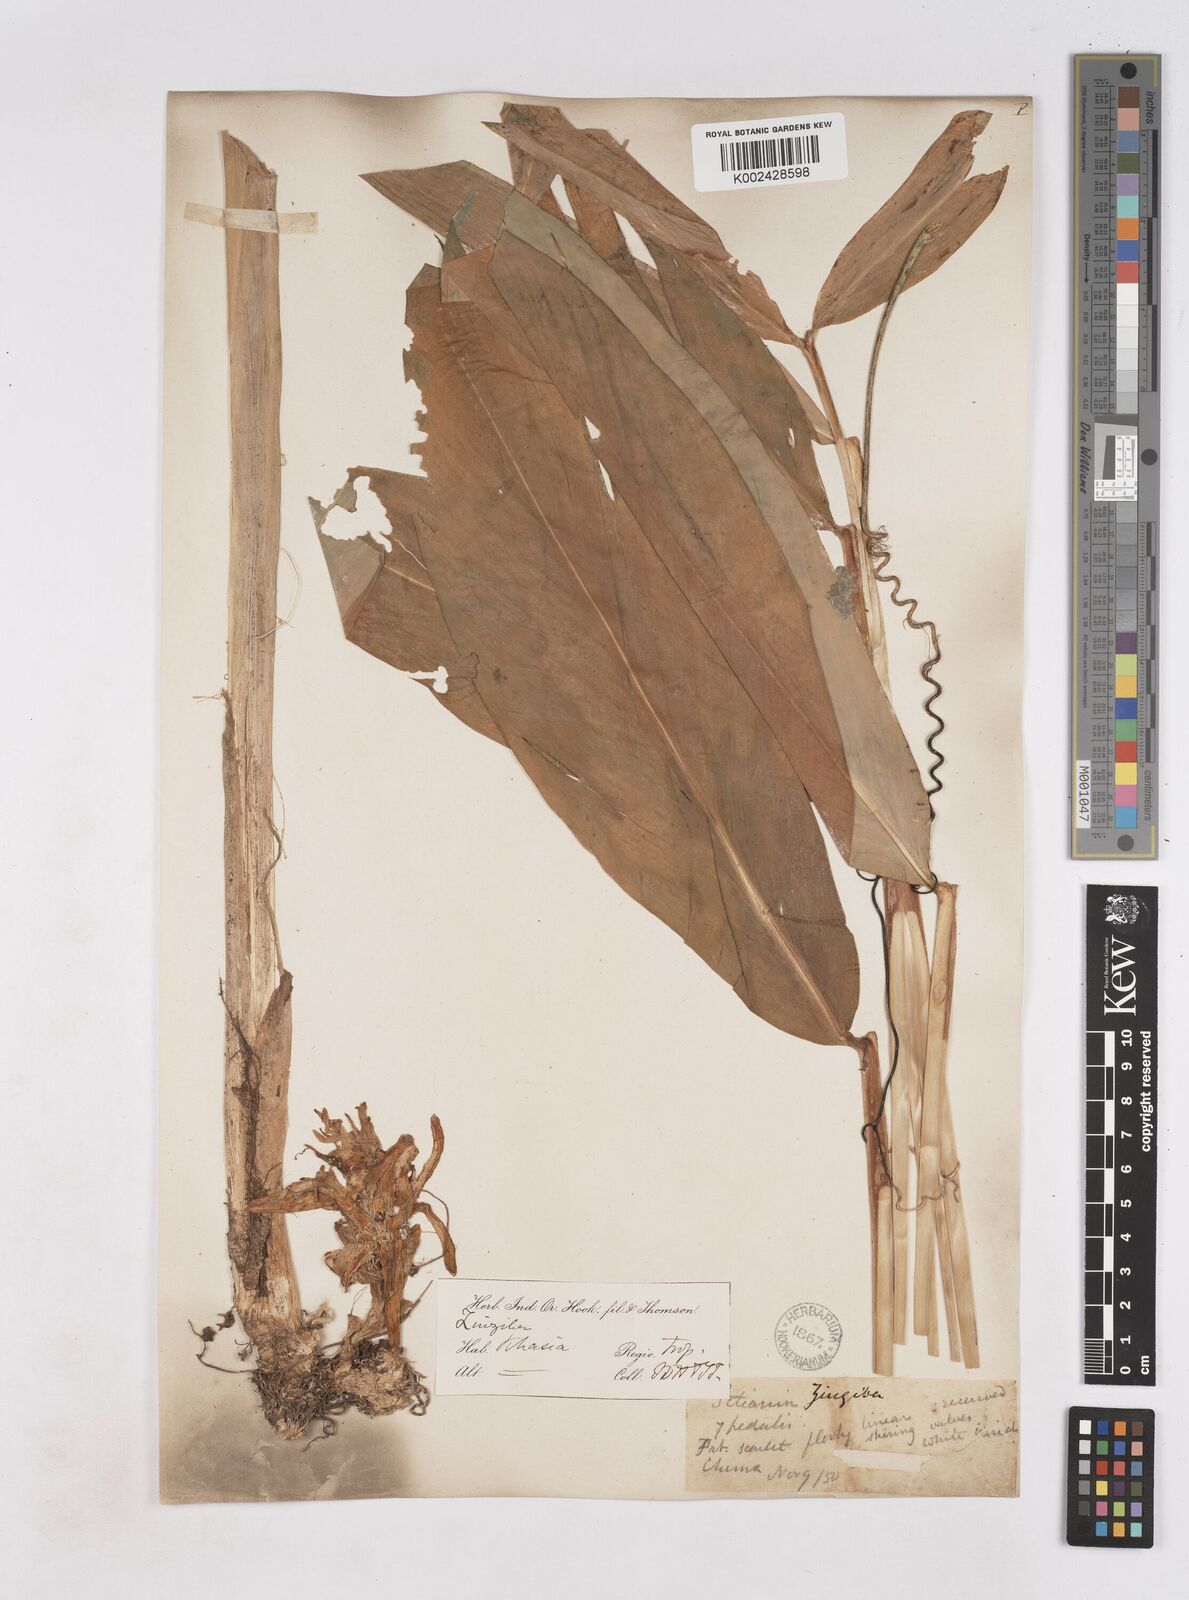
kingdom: Plantae
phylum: Tracheophyta
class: Liliopsida
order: Zingiberales
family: Zingiberaceae
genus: Zingiber
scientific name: Zingiber rubens
